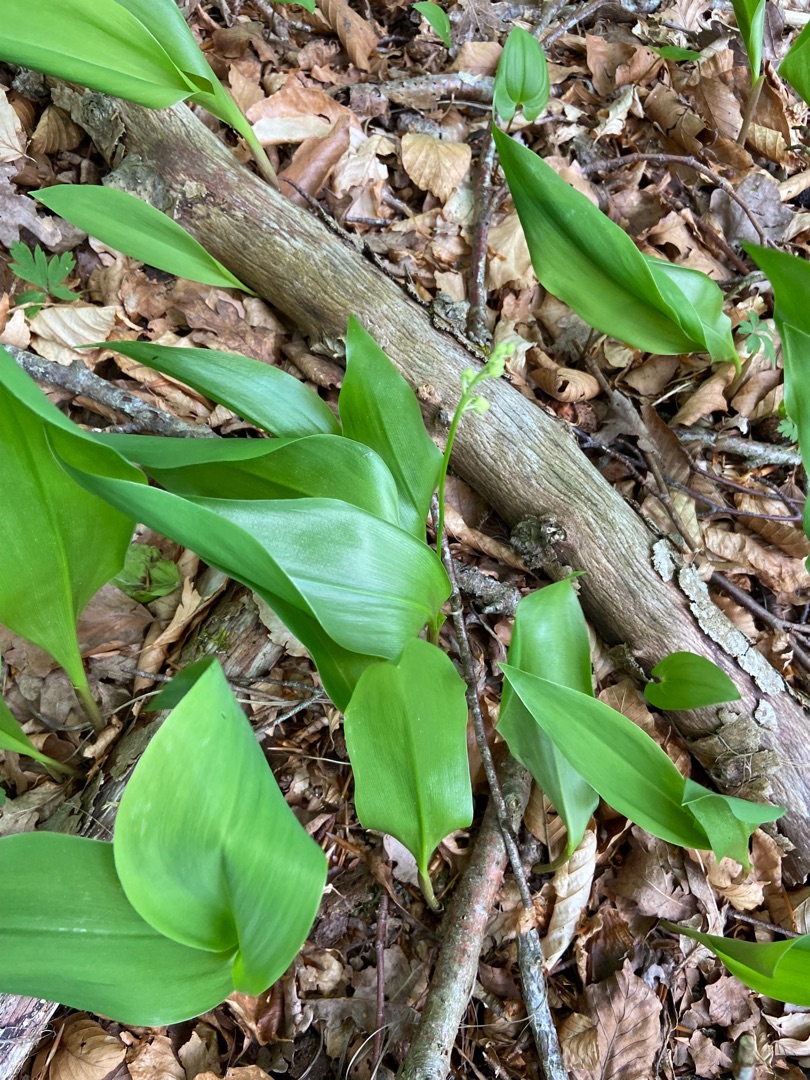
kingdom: Plantae
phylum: Tracheophyta
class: Liliopsida
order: Asparagales
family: Asparagaceae
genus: Convallaria
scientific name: Convallaria majalis
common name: Liljekonval
